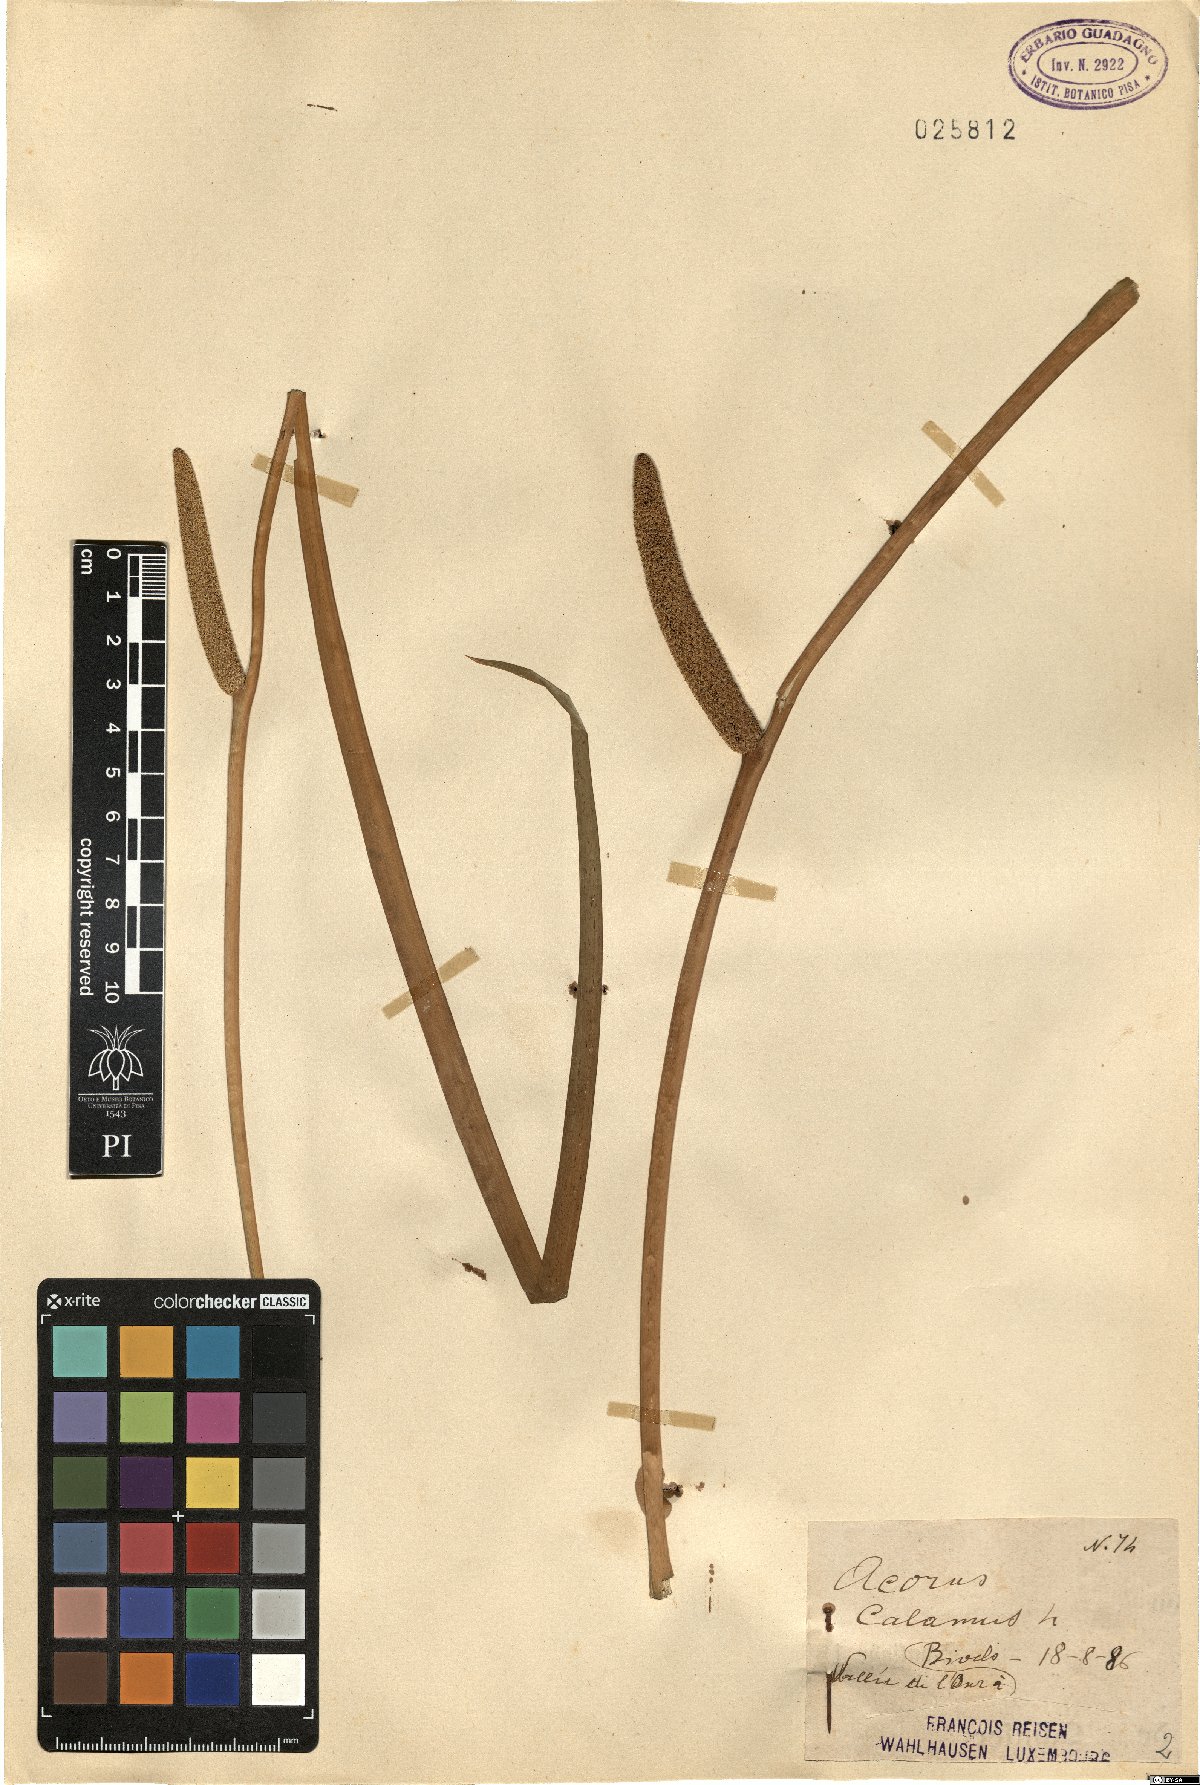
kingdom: Plantae
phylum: Tracheophyta
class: Liliopsida
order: Acorales
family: Acoraceae
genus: Acorus
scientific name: Acorus calamus
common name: Sweet-flag
